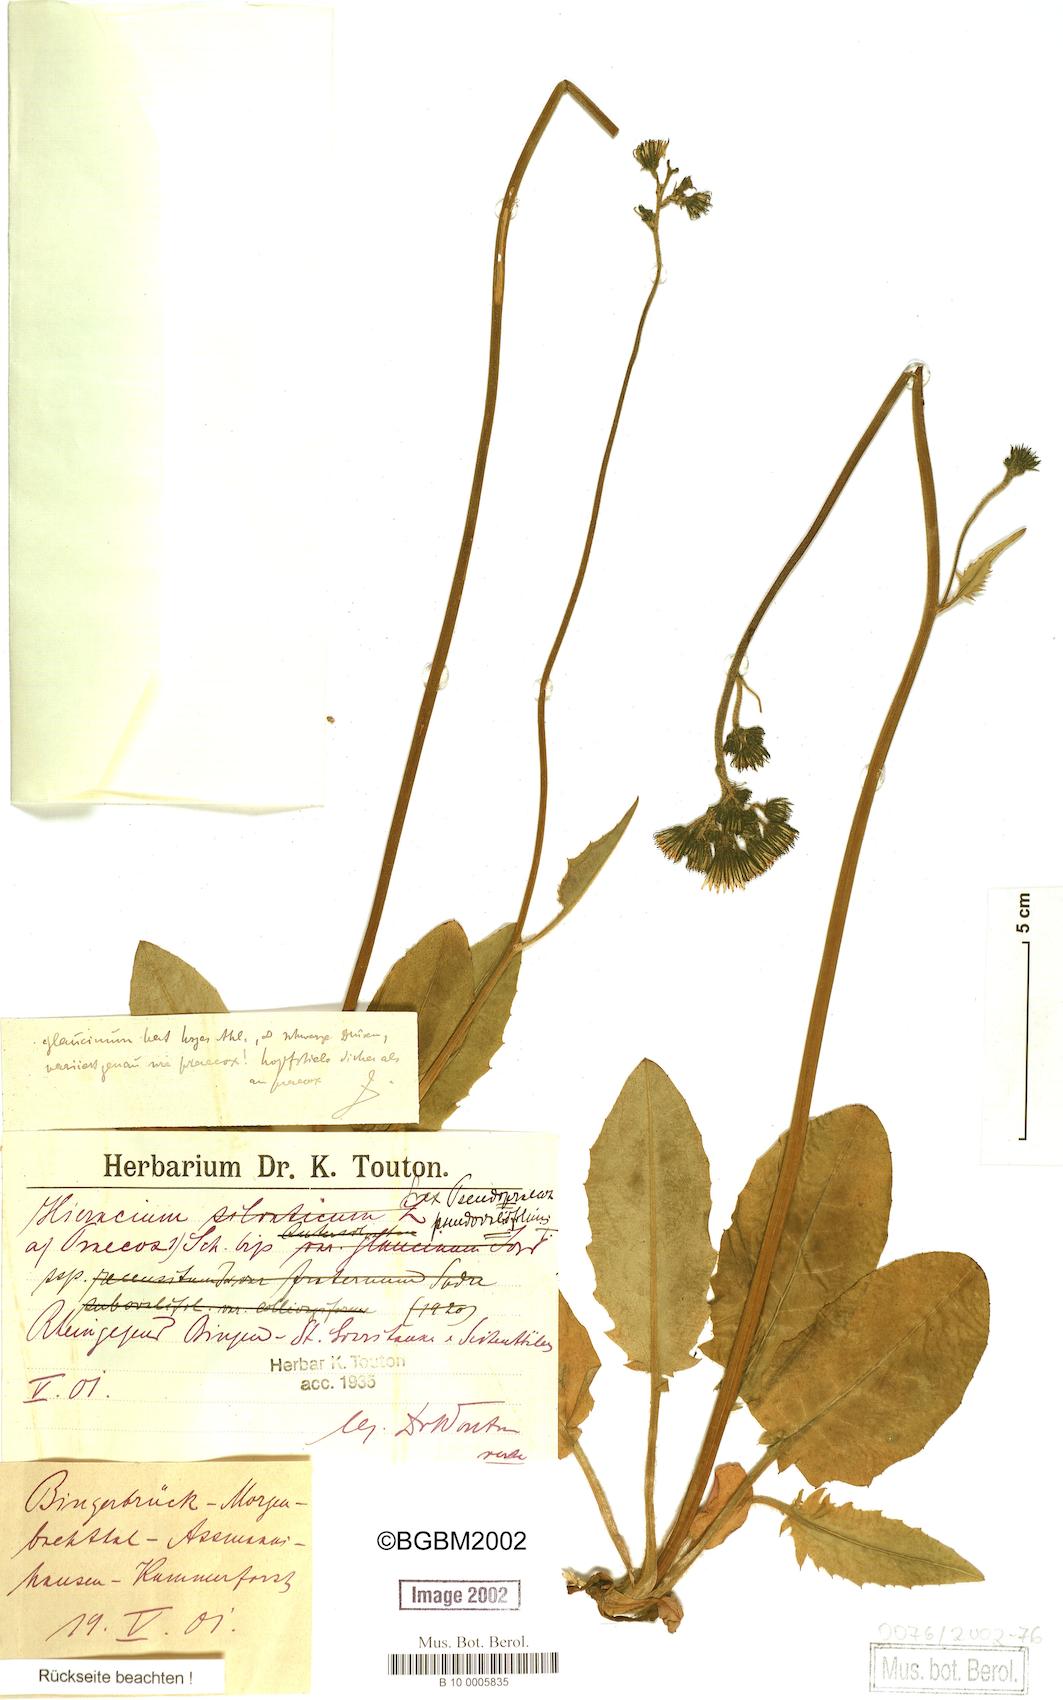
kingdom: Plantae
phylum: Tracheophyta
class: Magnoliopsida
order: Asterales
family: Asteraceae
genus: Hieracium
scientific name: Hieracium murorum
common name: Wall hawkweed
